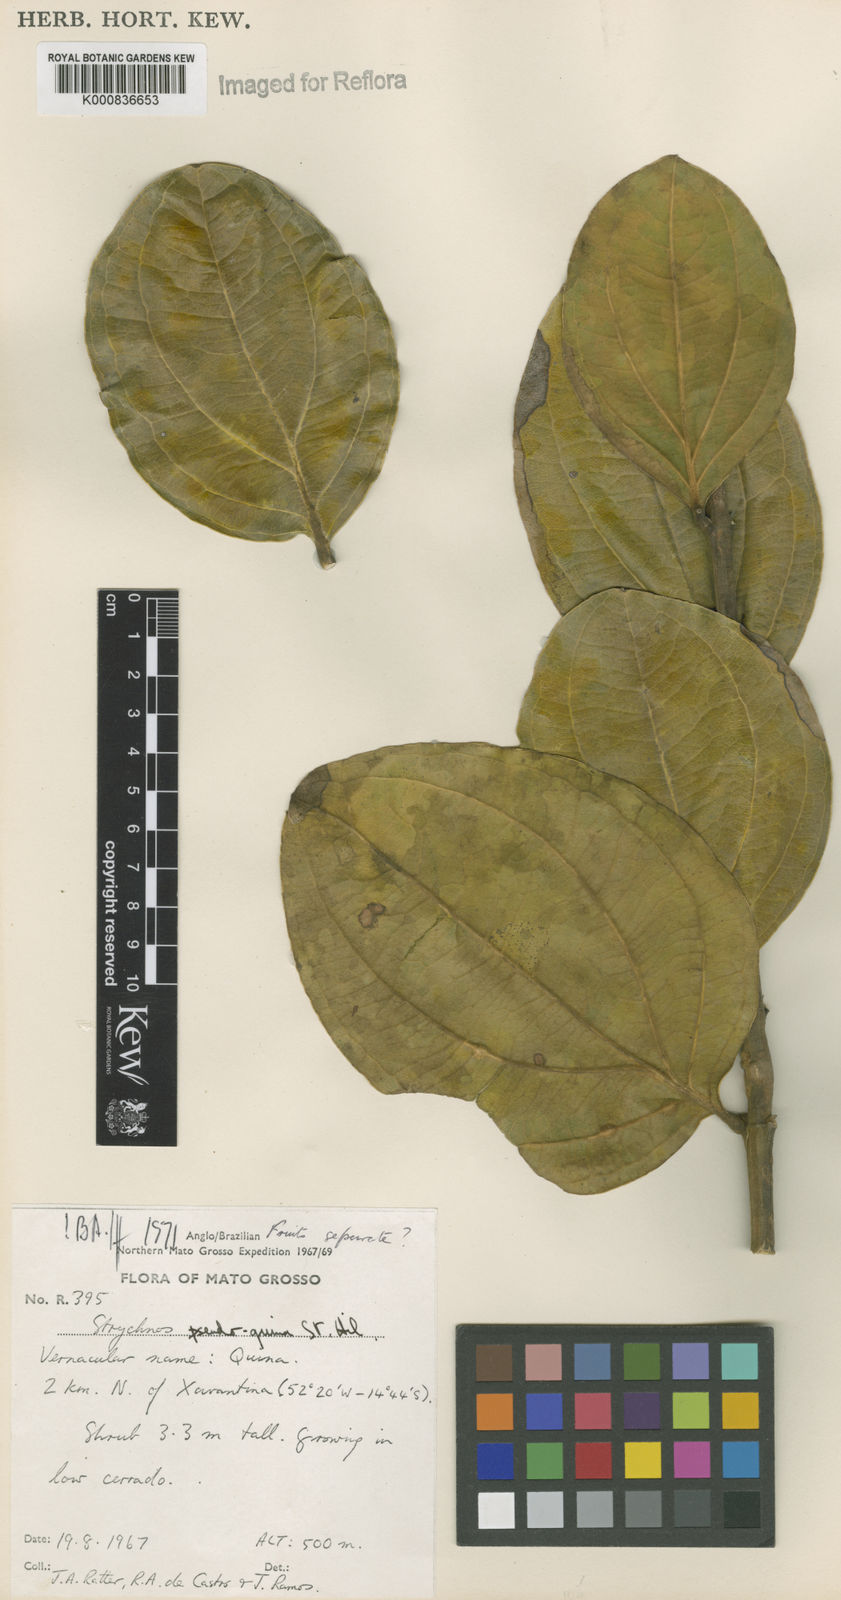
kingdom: Plantae
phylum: Tracheophyta
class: Magnoliopsida
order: Gentianales
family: Loganiaceae
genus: Strychnos
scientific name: Strychnos pseudoquina
